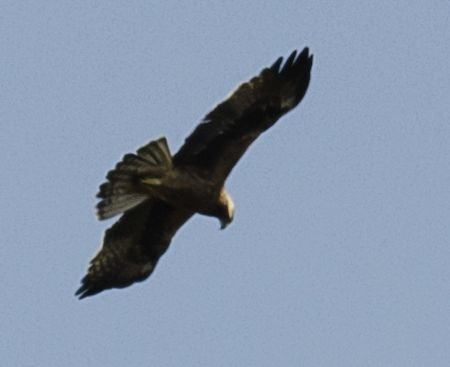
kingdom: Animalia
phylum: Chordata
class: Aves
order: Accipitriformes
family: Accipitridae
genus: Hieraaetus
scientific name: Hieraaetus pennatus
